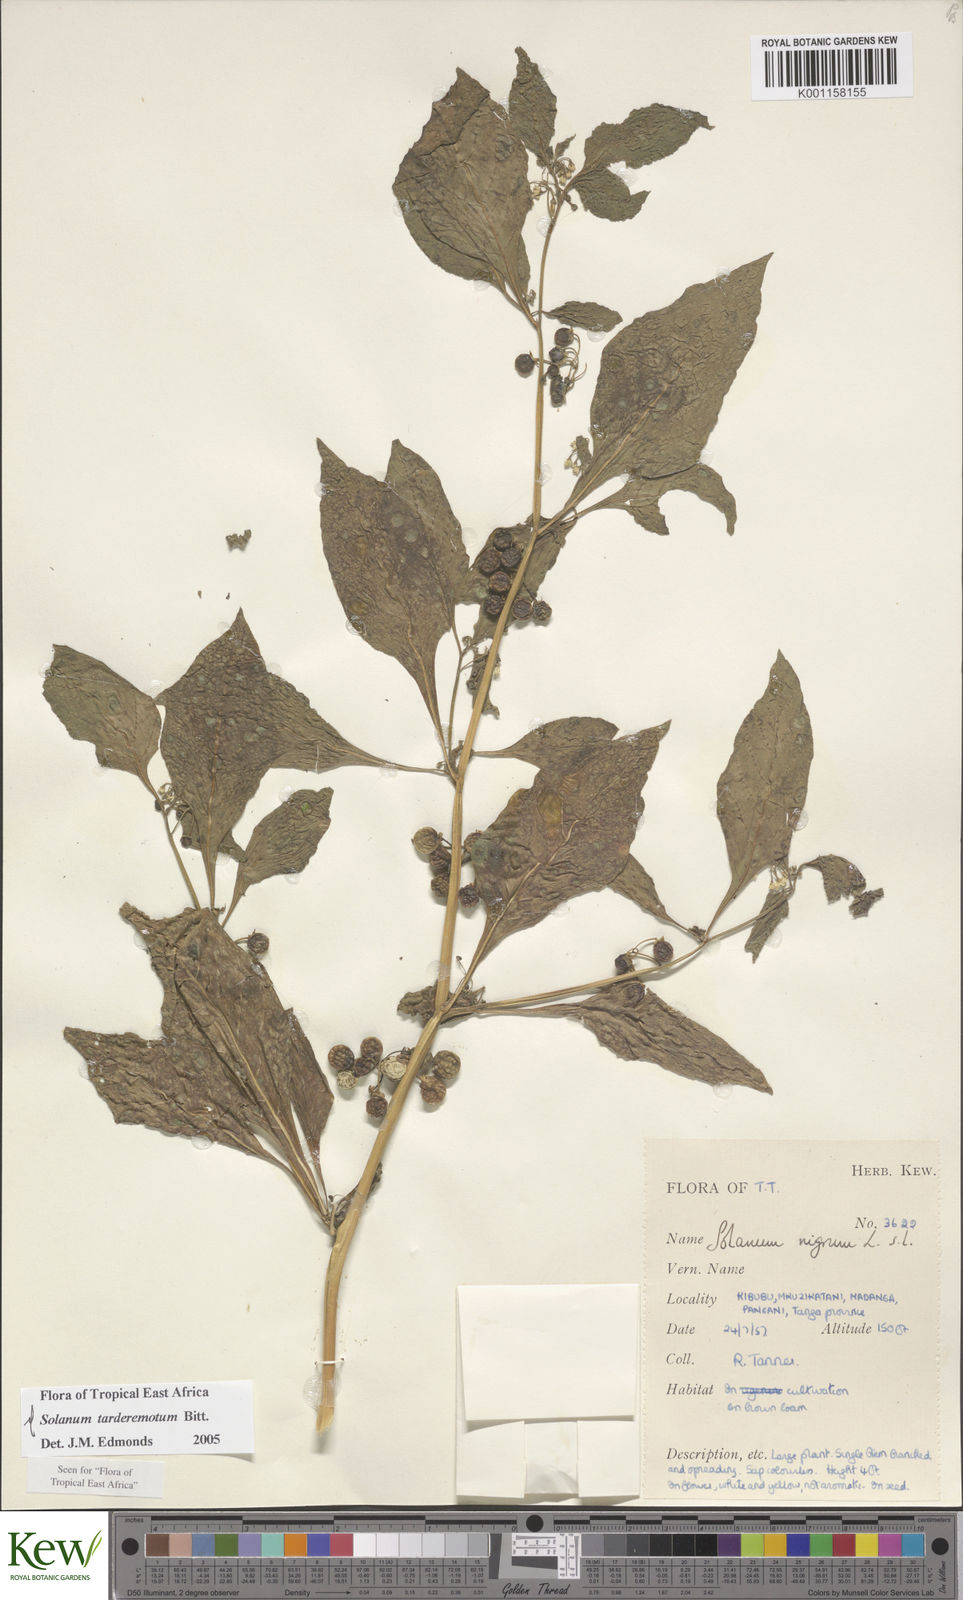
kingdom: Plantae
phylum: Tracheophyta
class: Magnoliopsida
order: Solanales
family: Solanaceae
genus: Solanum
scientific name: Solanum tarderemotum
